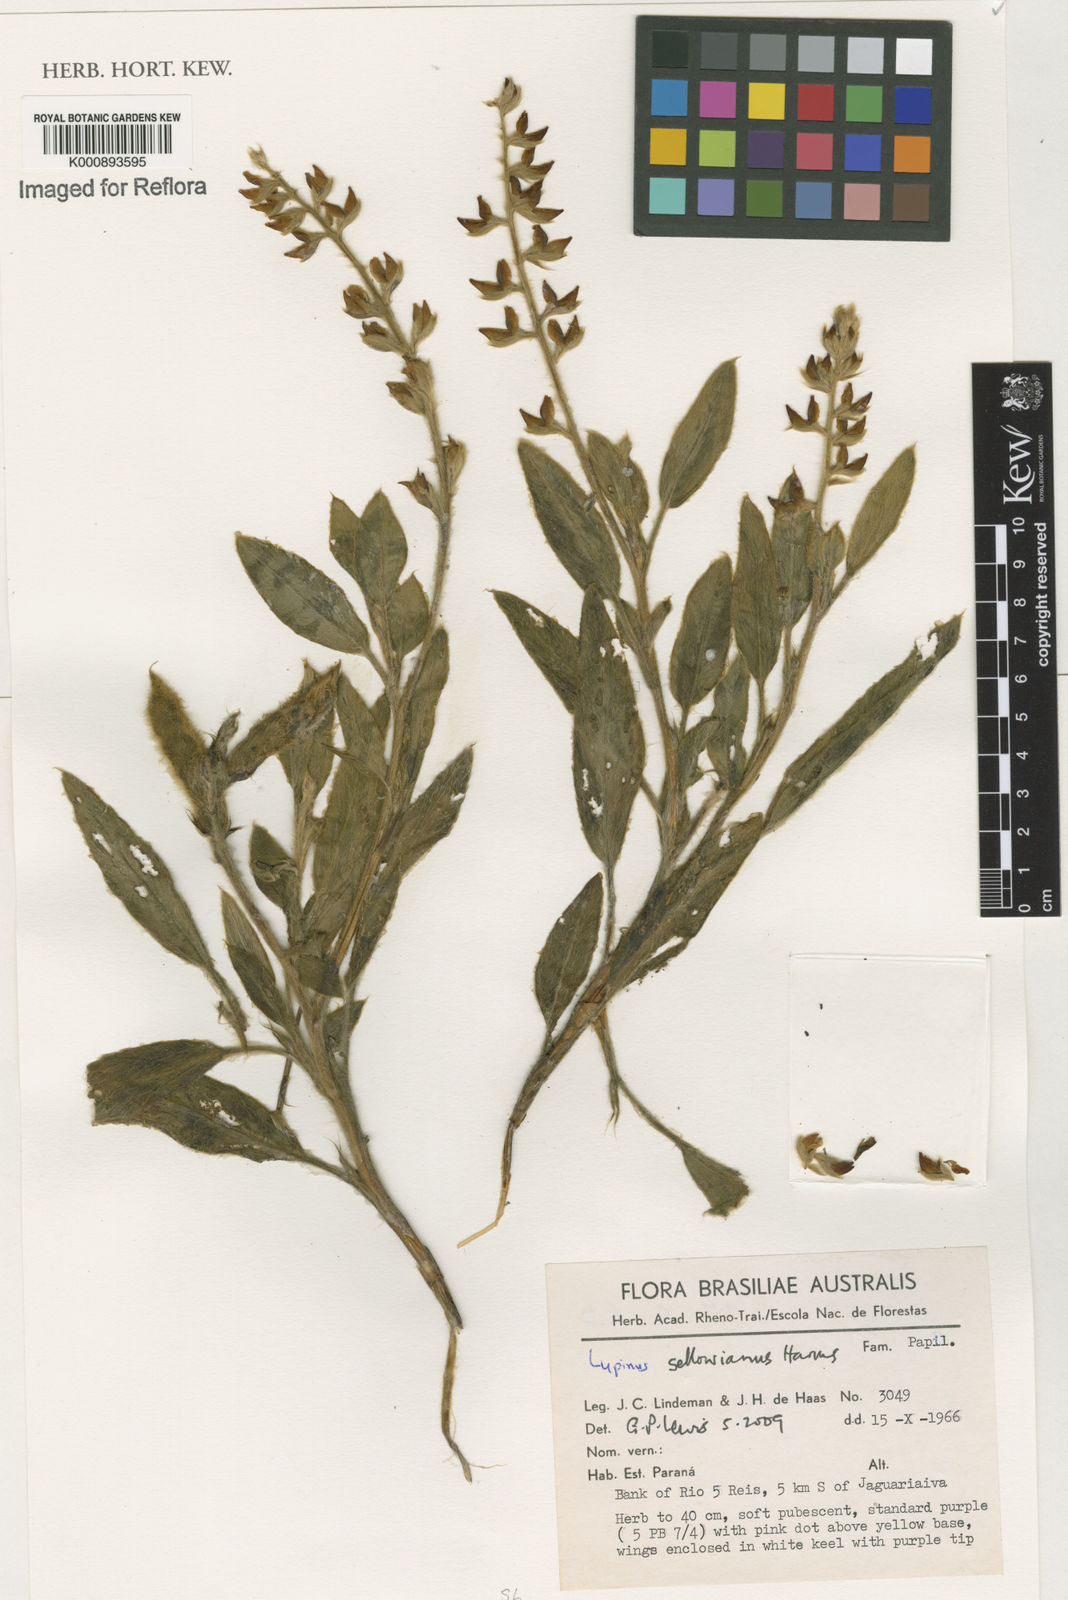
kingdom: Plantae
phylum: Tracheophyta
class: Magnoliopsida
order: Fabales
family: Fabaceae
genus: Lupinus
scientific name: Lupinus sellowianus
